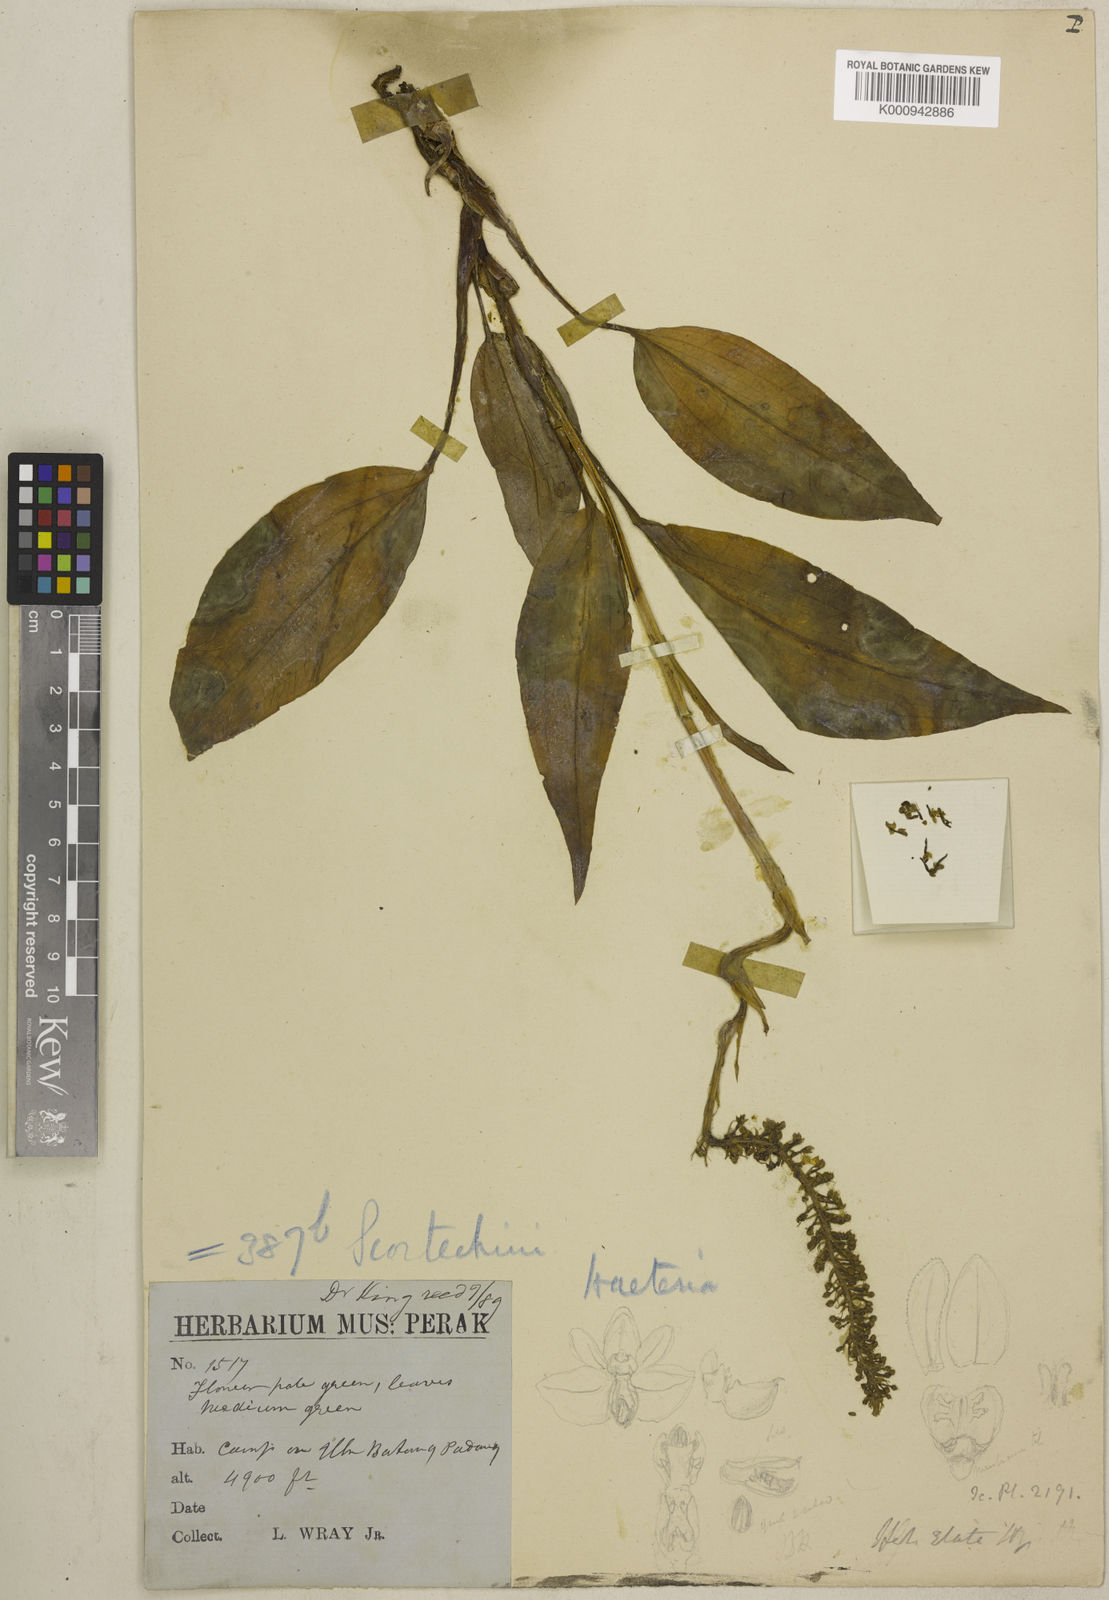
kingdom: Plantae
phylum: Tracheophyta
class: Liliopsida
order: Asparagales
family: Orchidaceae
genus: Hetaeria
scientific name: Hetaeria elata
